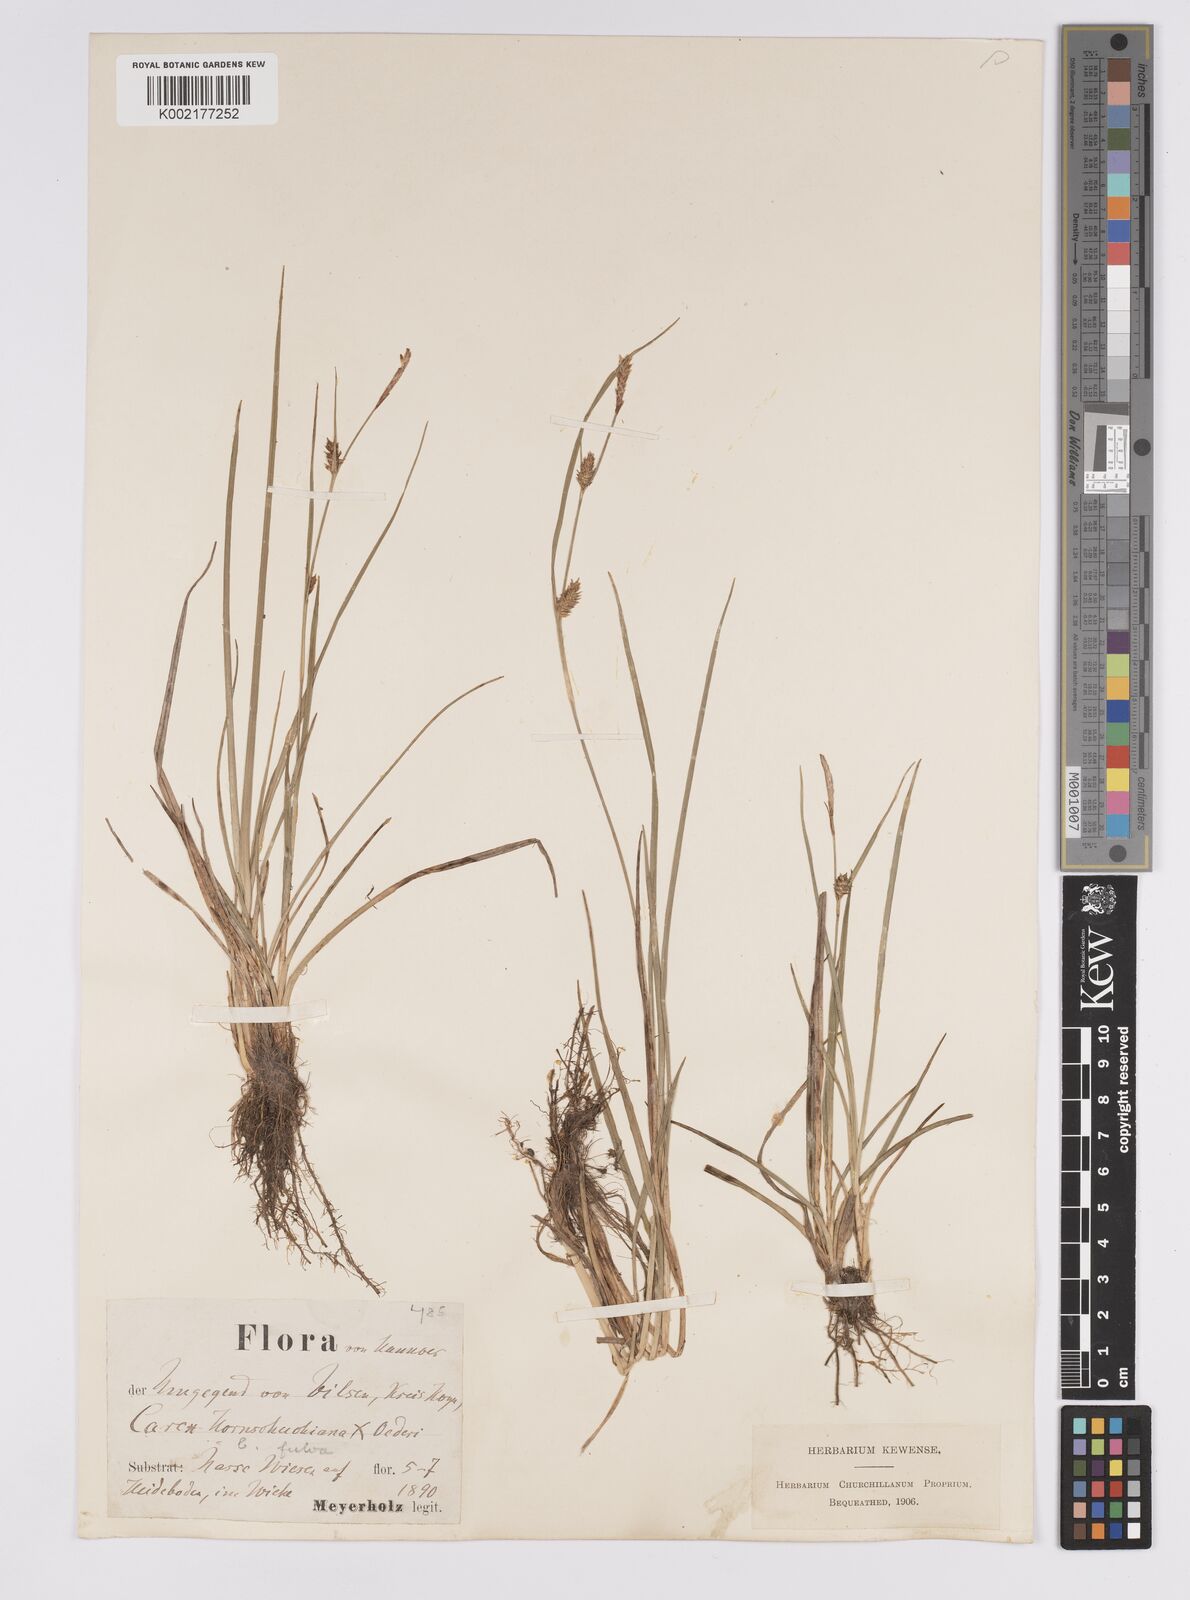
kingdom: Plantae
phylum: Tracheophyta
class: Liliopsida
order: Poales
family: Cyperaceae
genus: Carex
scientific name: Carex hostiana
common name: Tawny sedge
